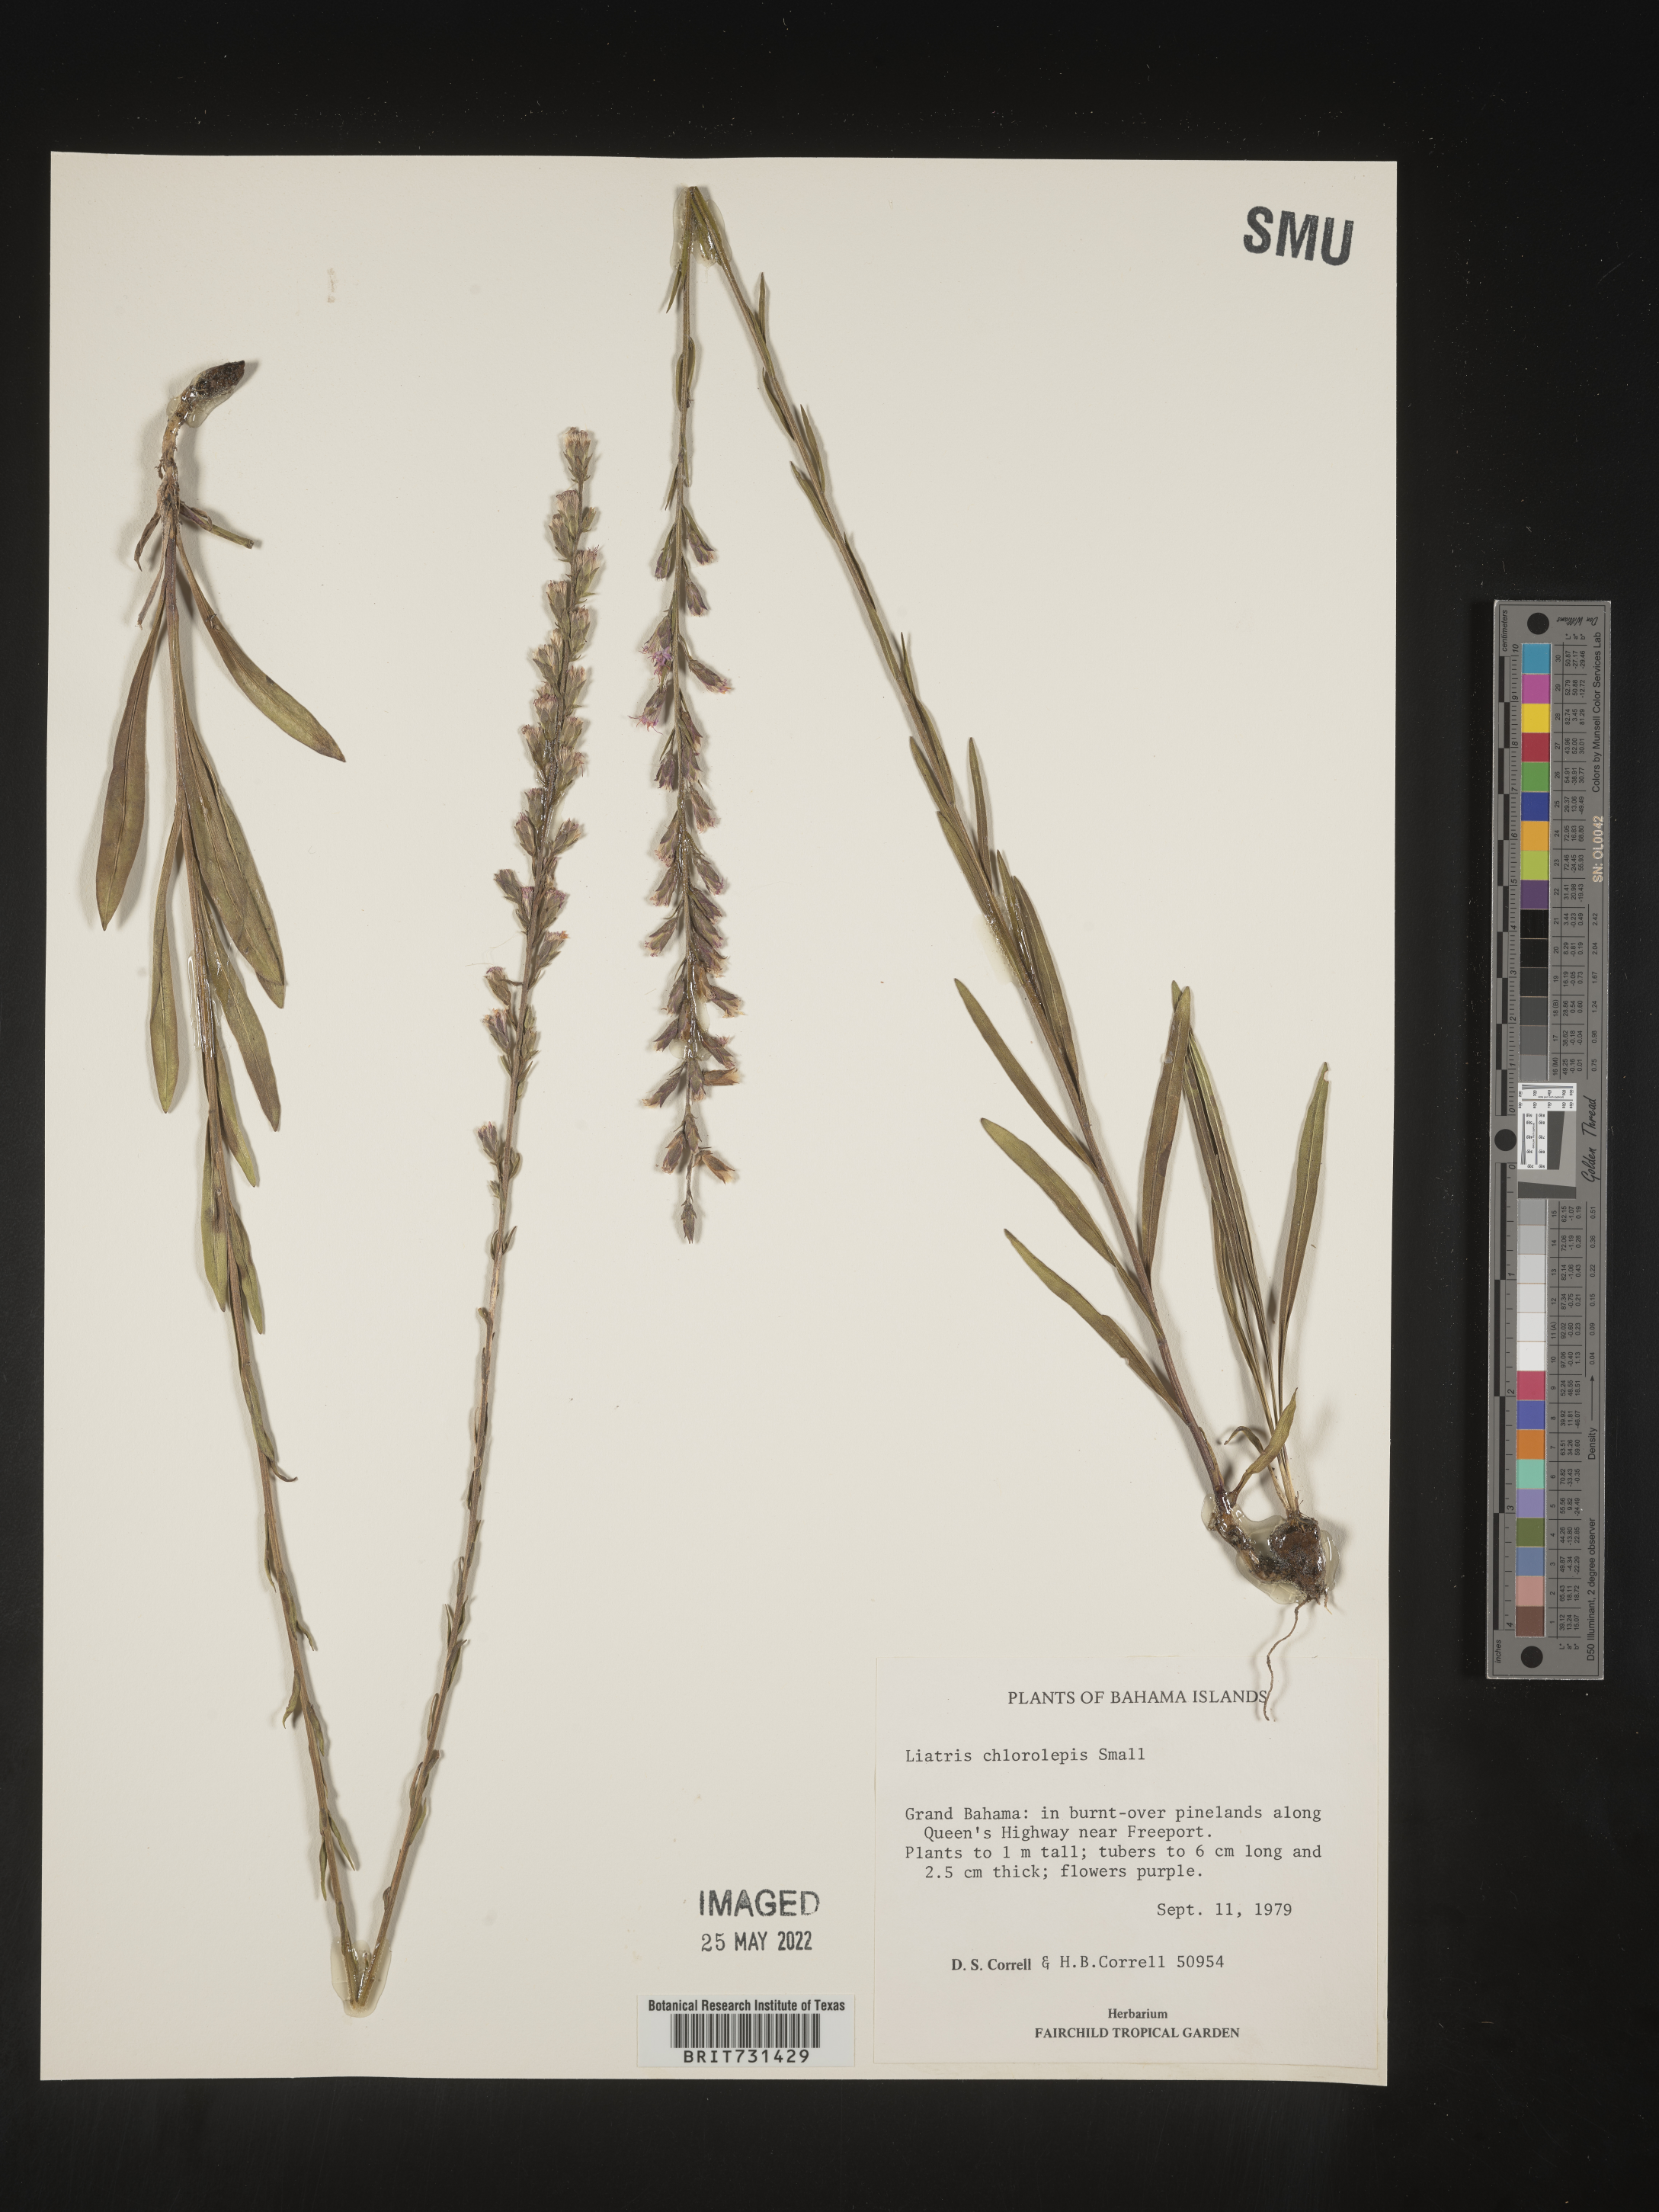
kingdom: Plantae
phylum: Tracheophyta
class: Magnoliopsida
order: Asterales
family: Asteraceae
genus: Liatris
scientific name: Liatris
